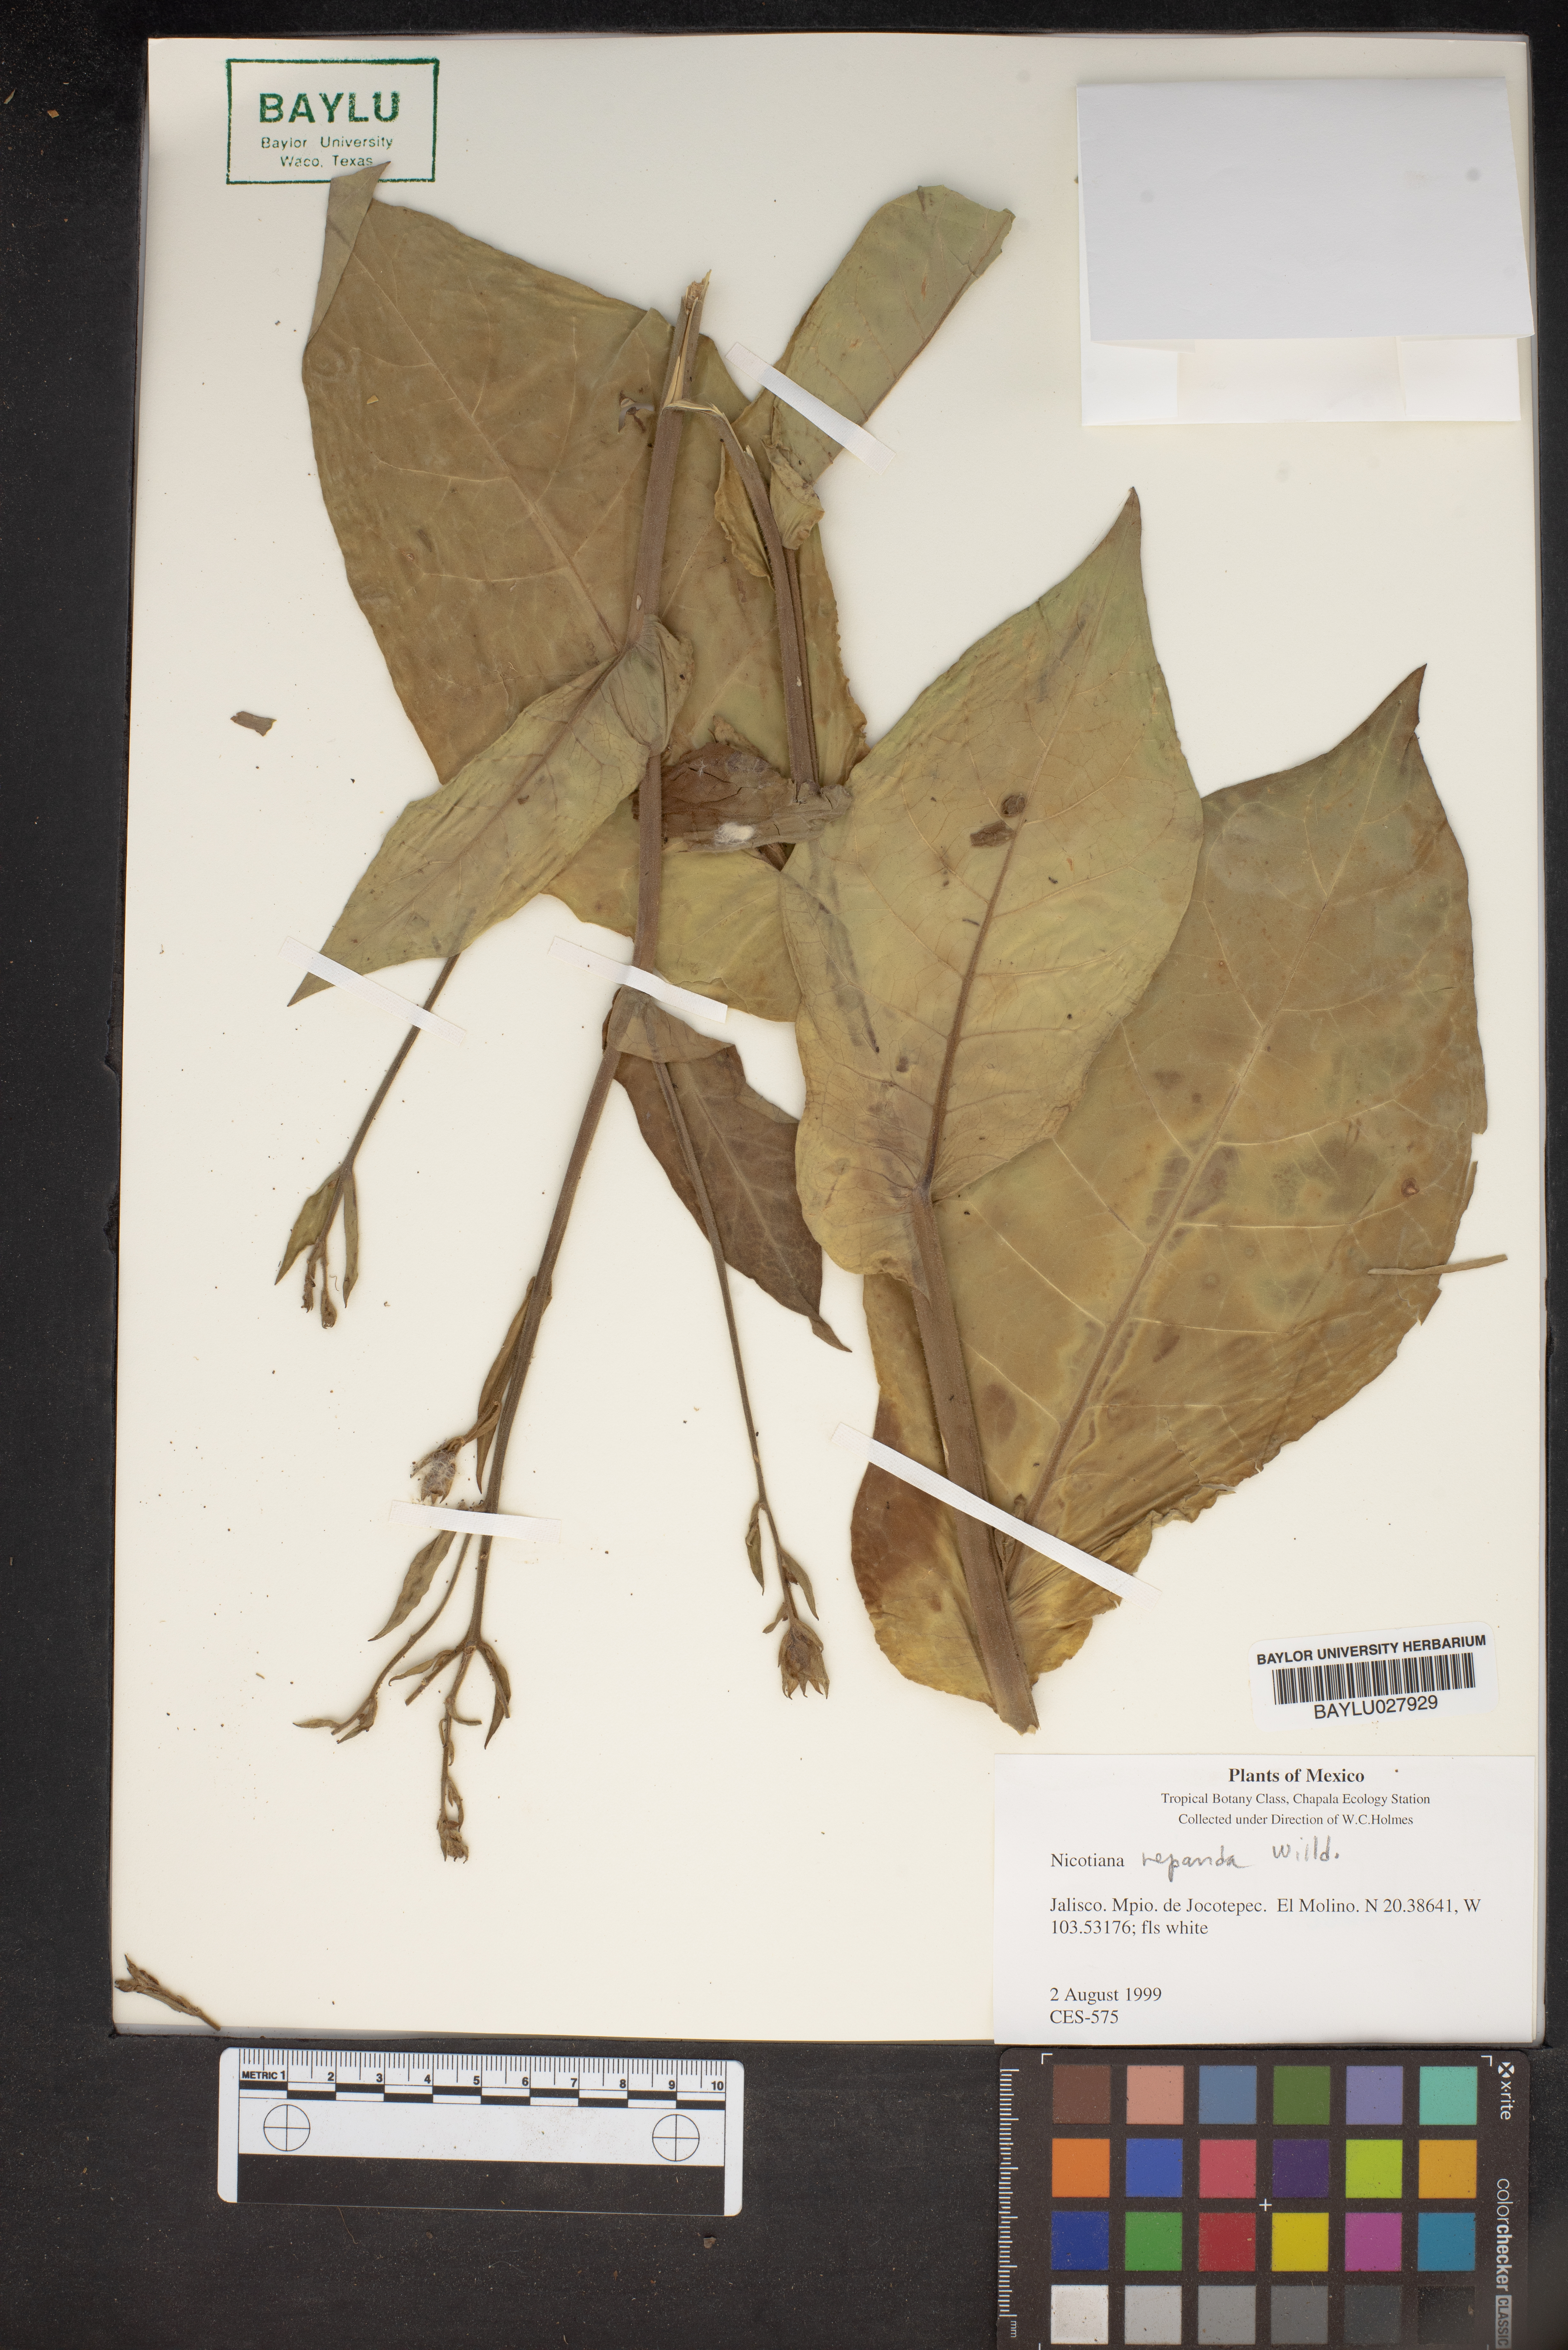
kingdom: Plantae
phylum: Tracheophyta
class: Magnoliopsida
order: Solanales
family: Solanaceae
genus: Nicotiana
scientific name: Nicotiana repanda
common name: Fiddle-leaf tobacco
